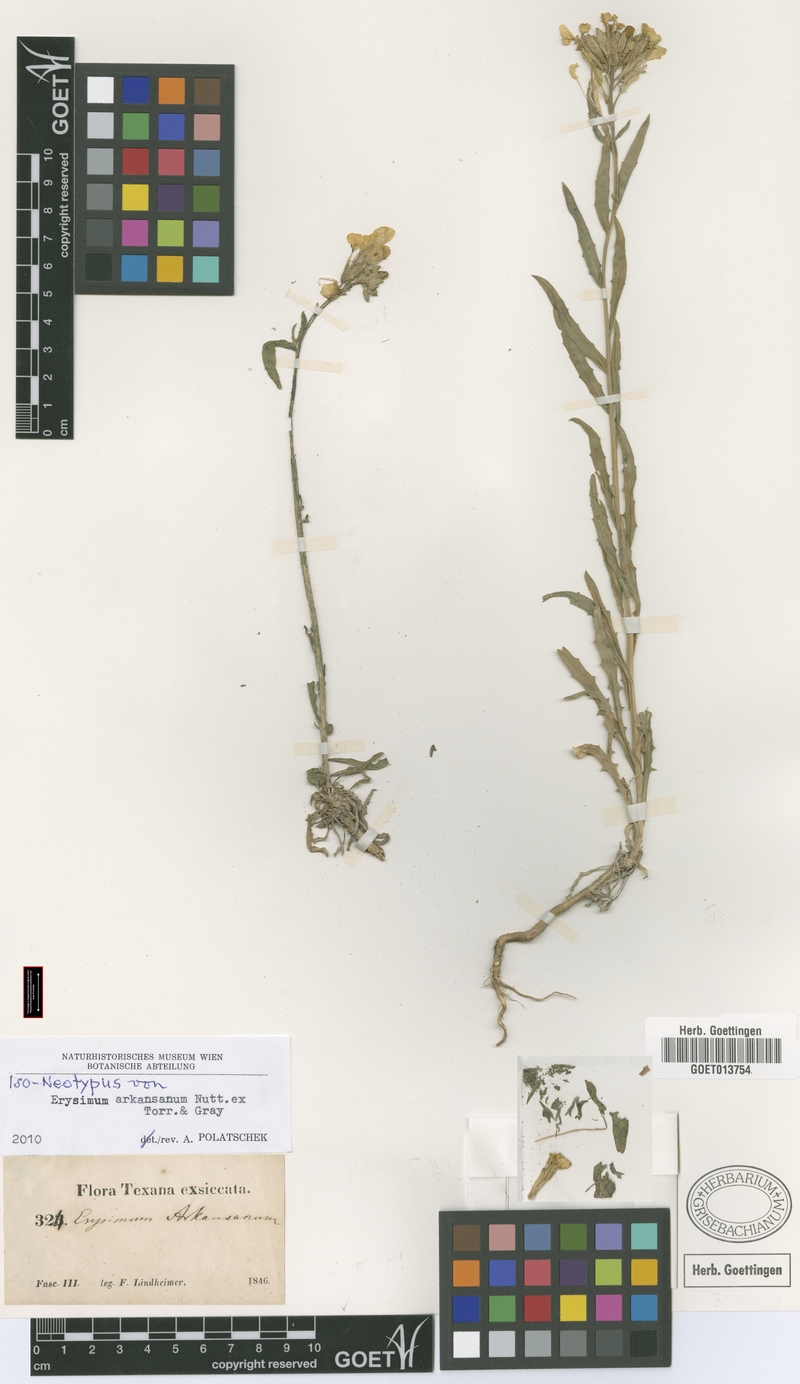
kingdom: Plantae
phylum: Tracheophyta
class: Magnoliopsida
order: Brassicales
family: Brassicaceae
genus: Erysimum
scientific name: Erysimum arkansanum
